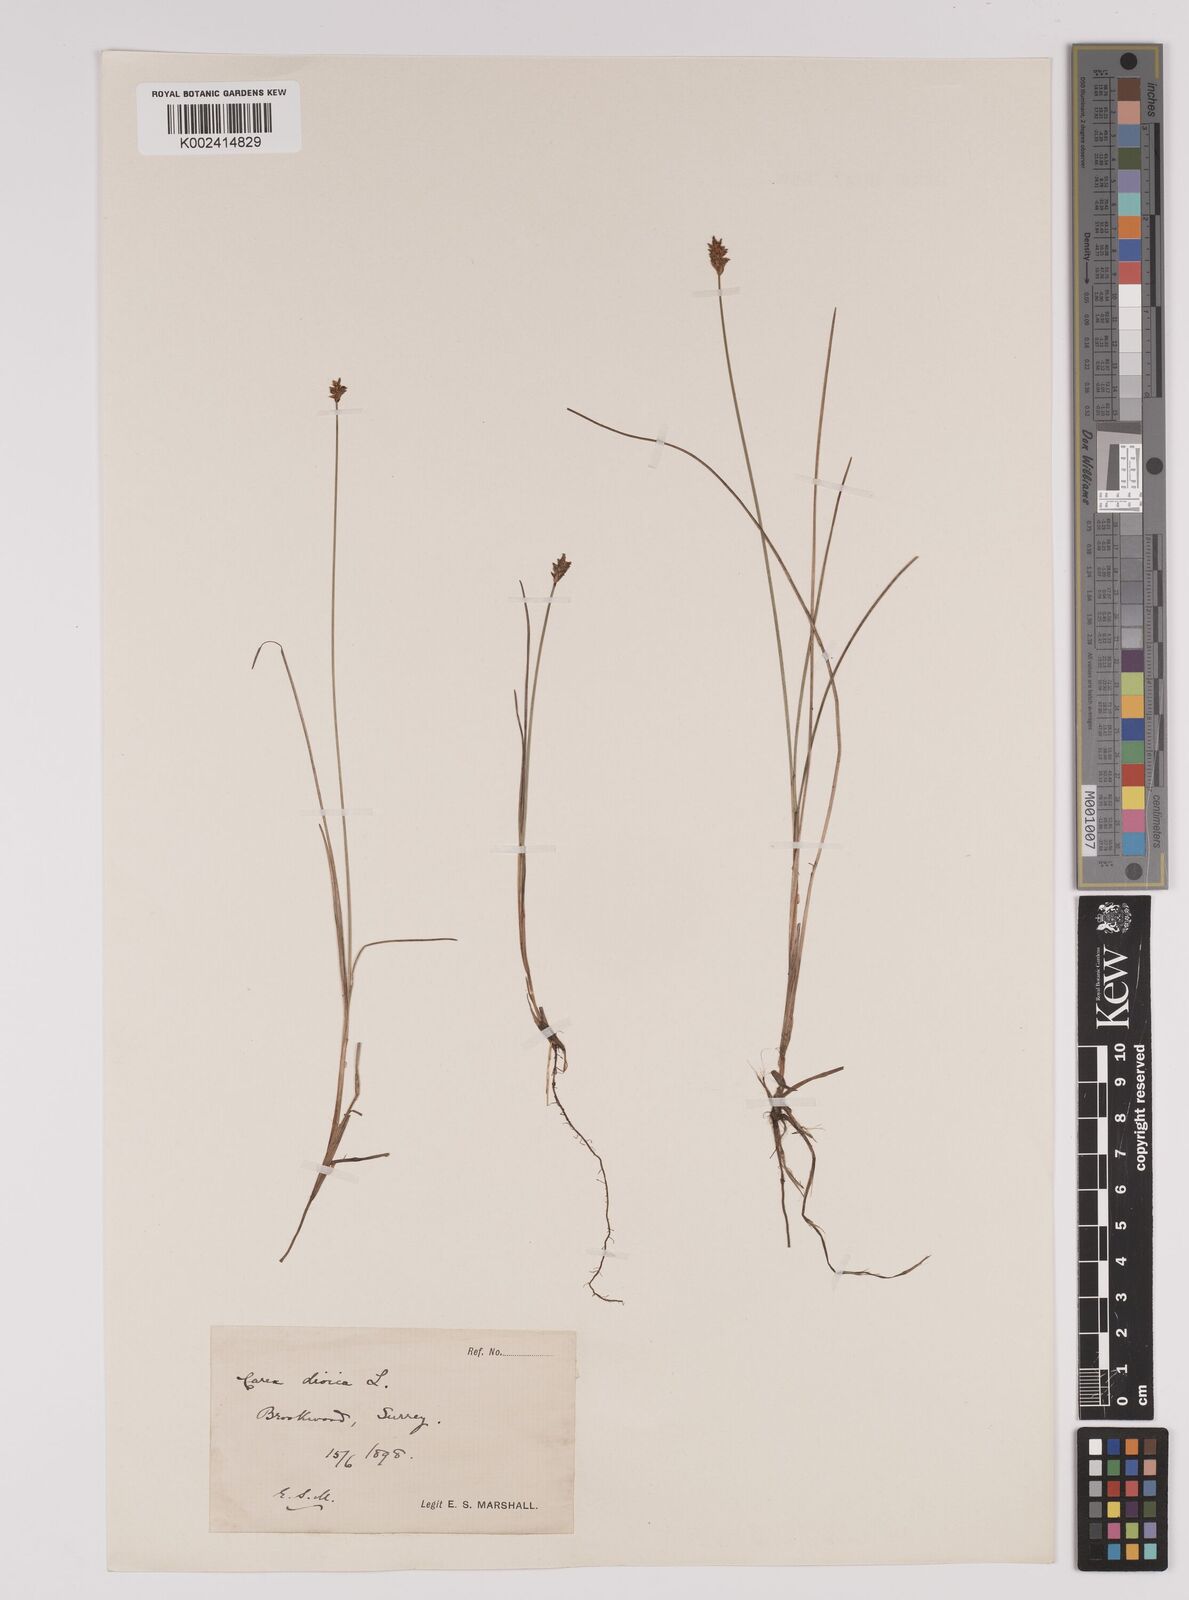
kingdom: Plantae
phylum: Tracheophyta
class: Liliopsida
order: Poales
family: Cyperaceae
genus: Carex
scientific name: Carex dioica
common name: Dioecious sedge
